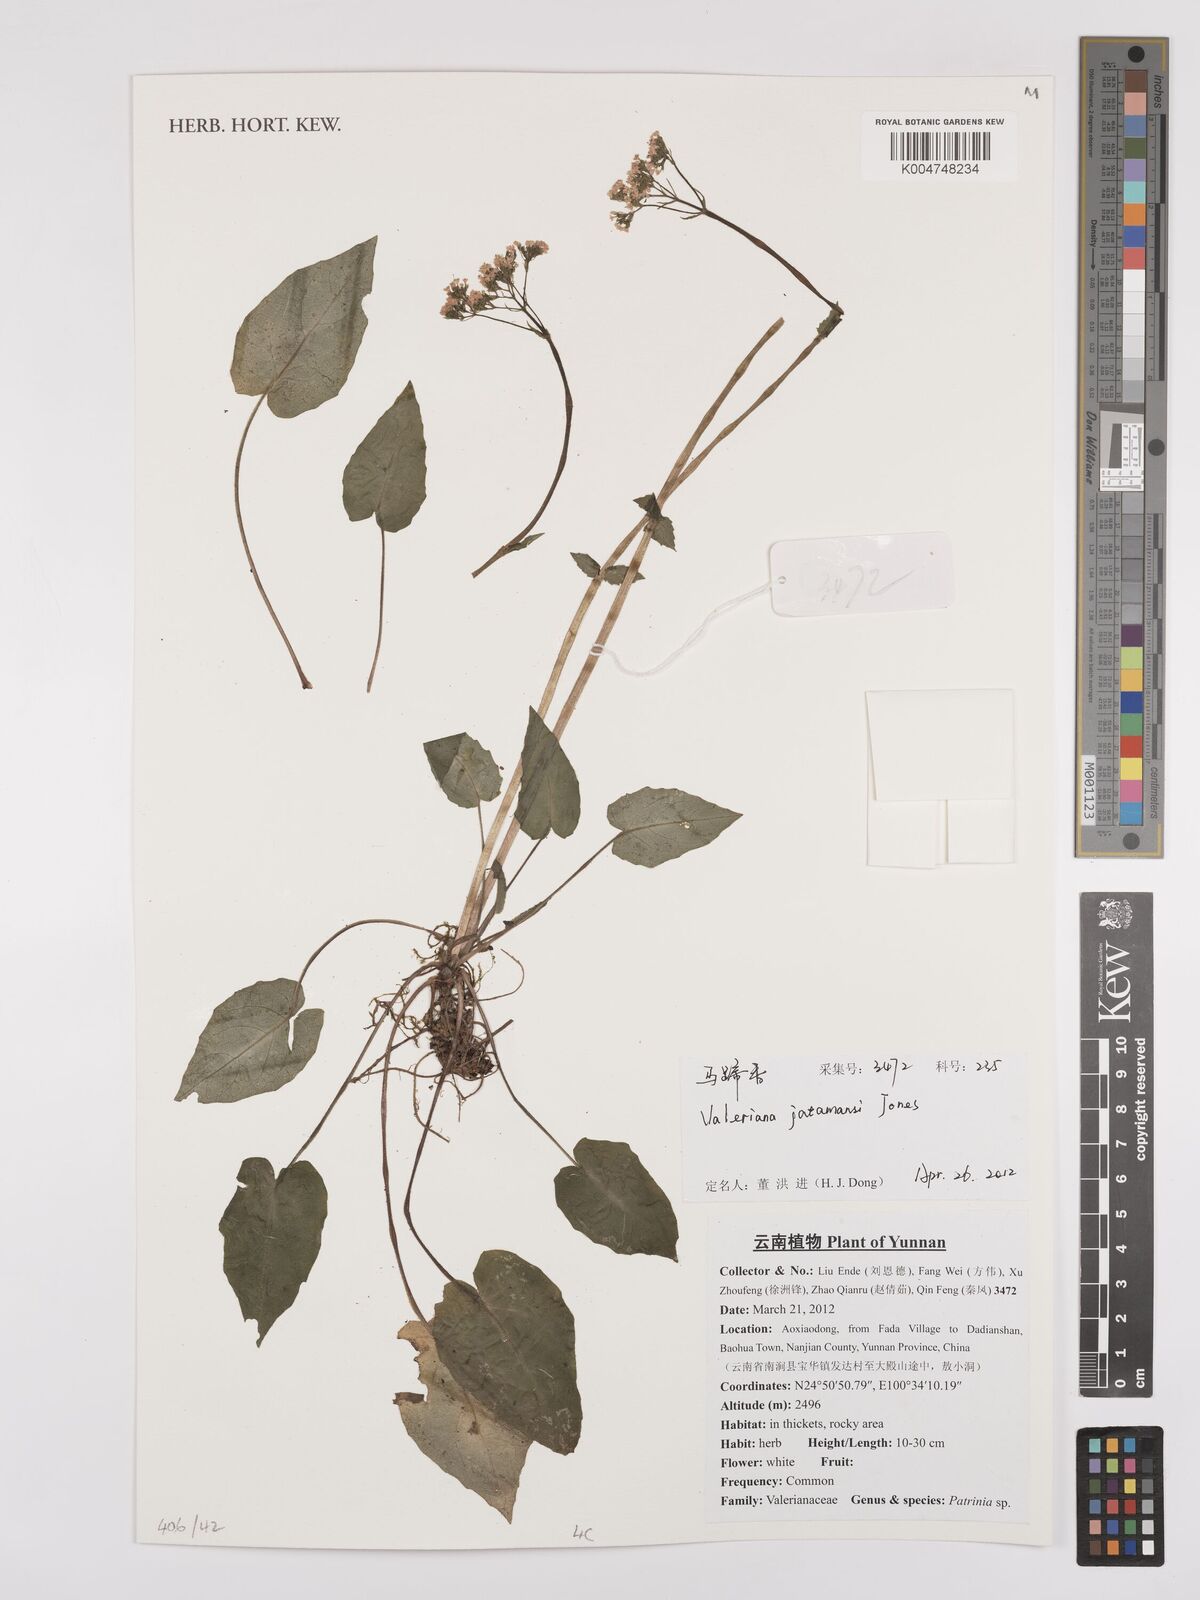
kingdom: Plantae
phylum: Tracheophyta
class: Magnoliopsida
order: Dipsacales
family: Caprifoliaceae
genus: Valeriana
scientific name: Valeriana
